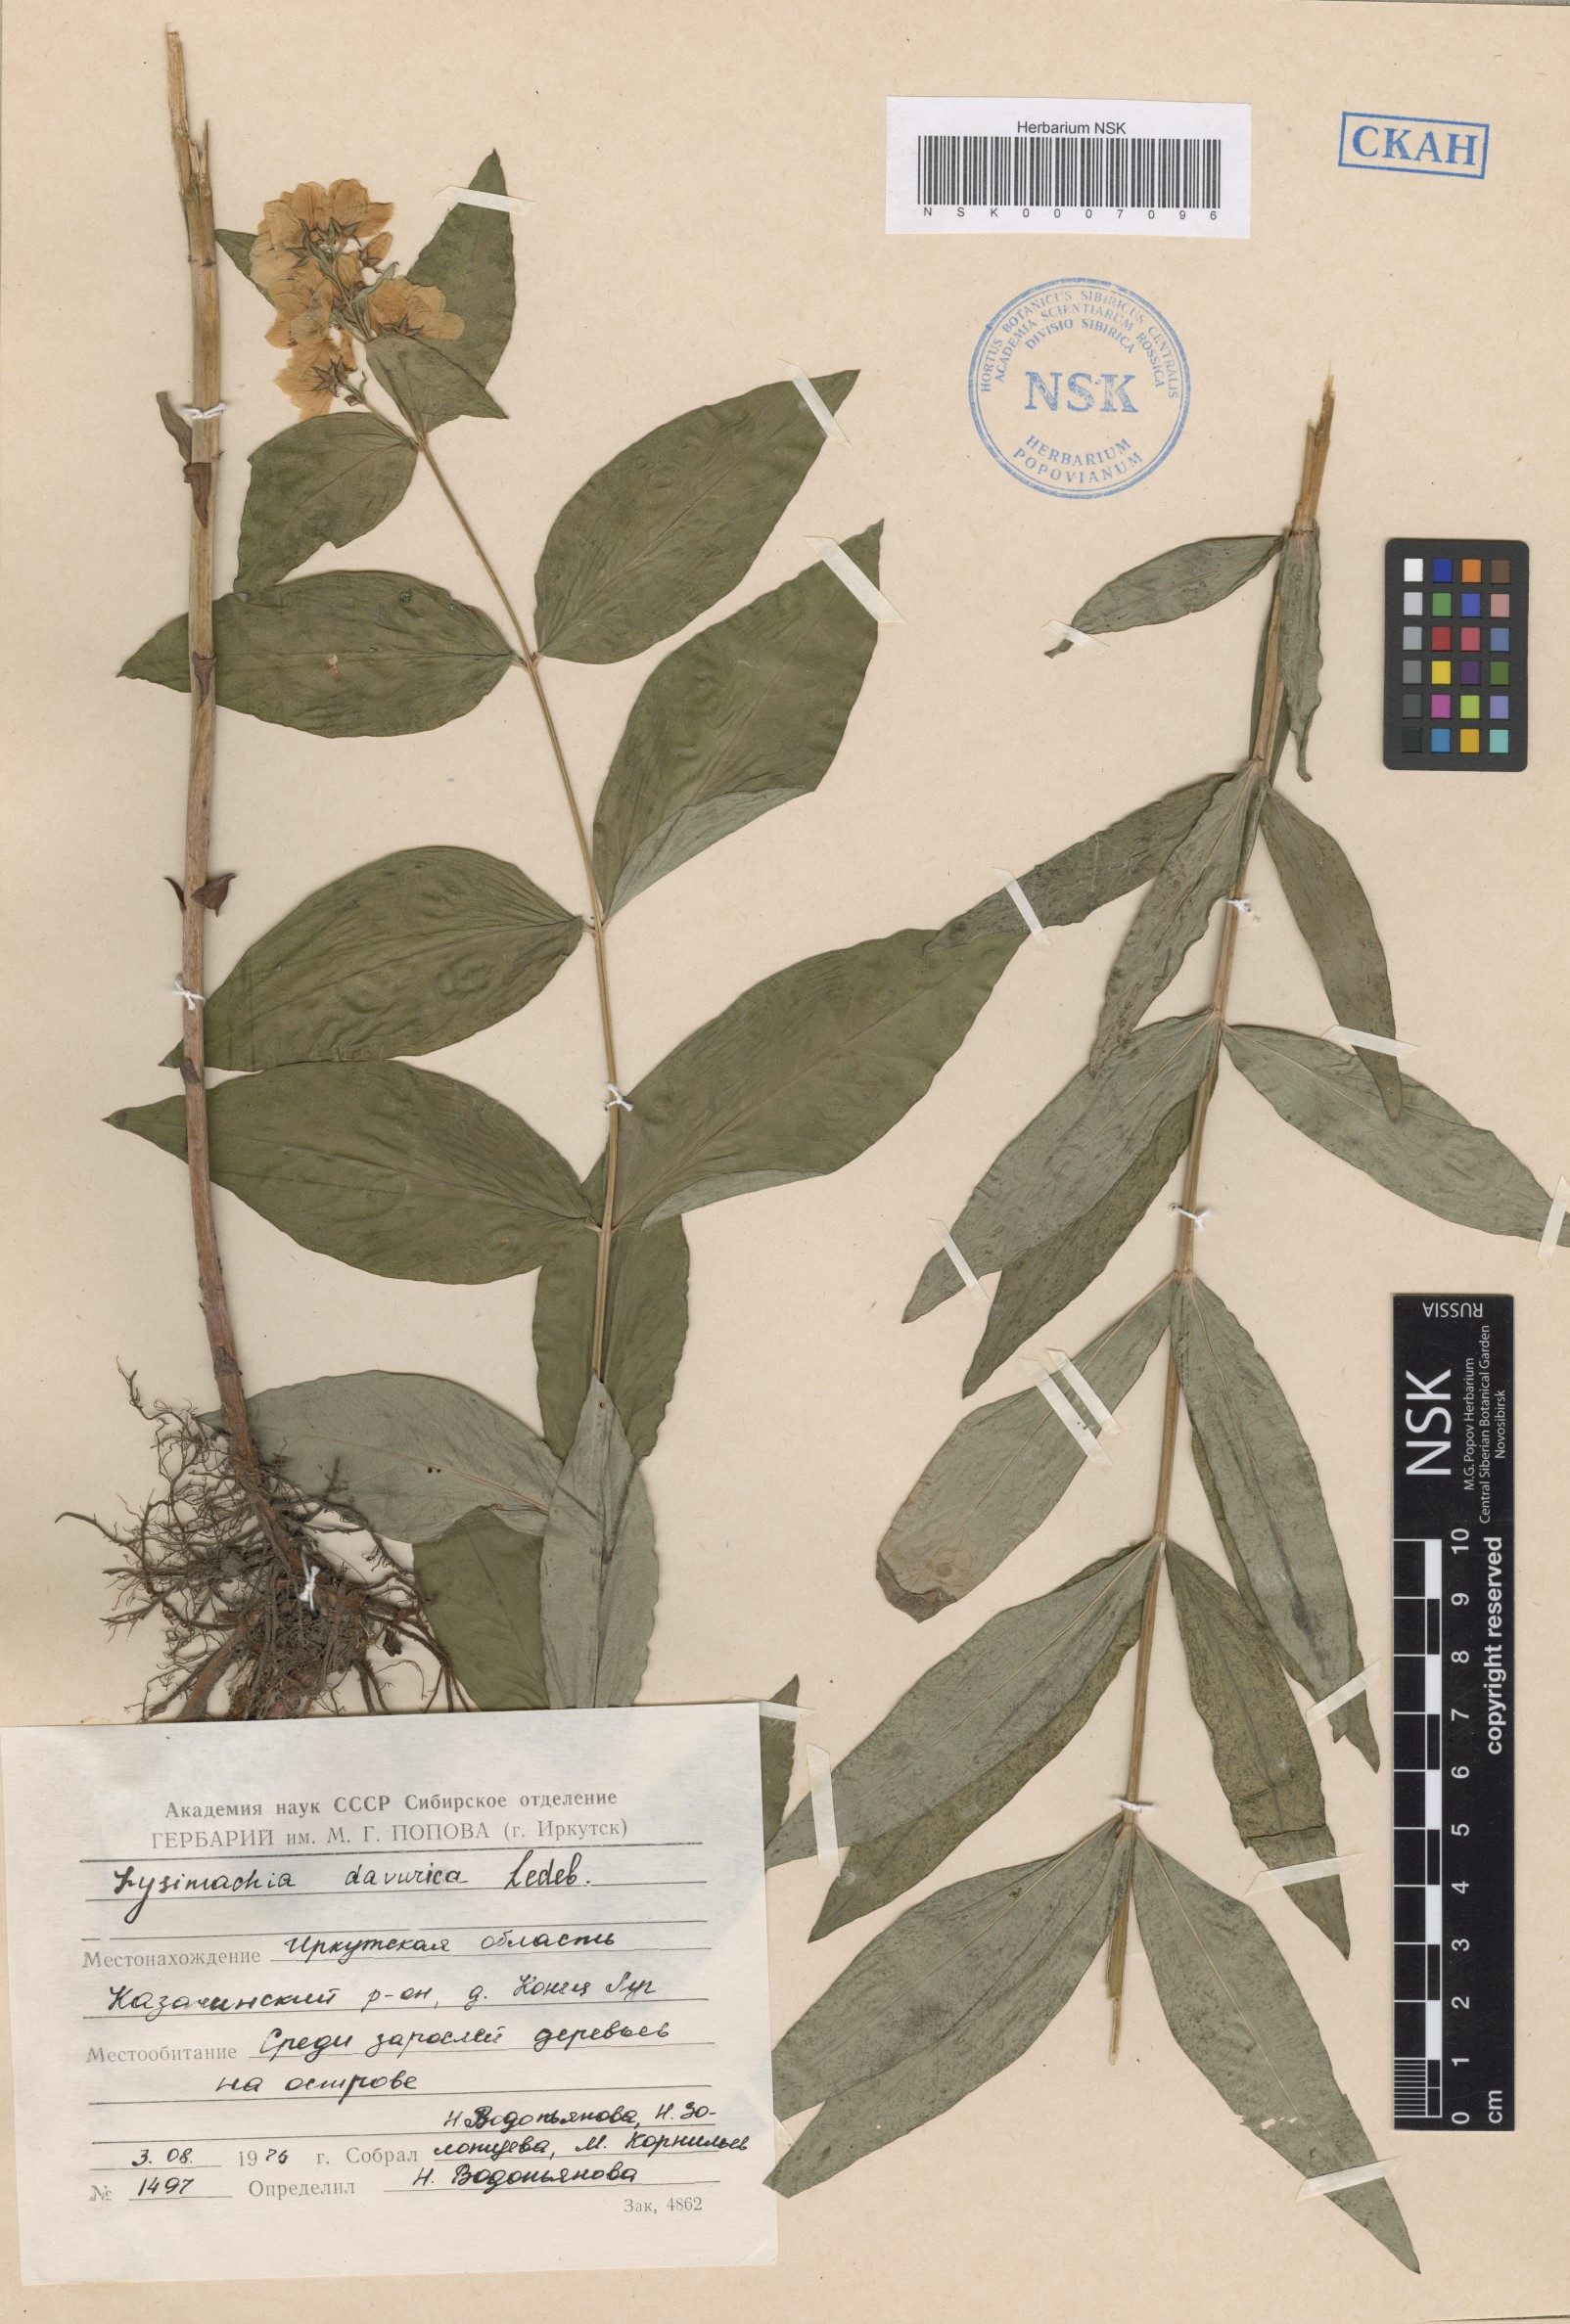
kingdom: Plantae
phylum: Tracheophyta
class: Magnoliopsida
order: Ericales
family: Primulaceae
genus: Lysimachia
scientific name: Lysimachia davurica
